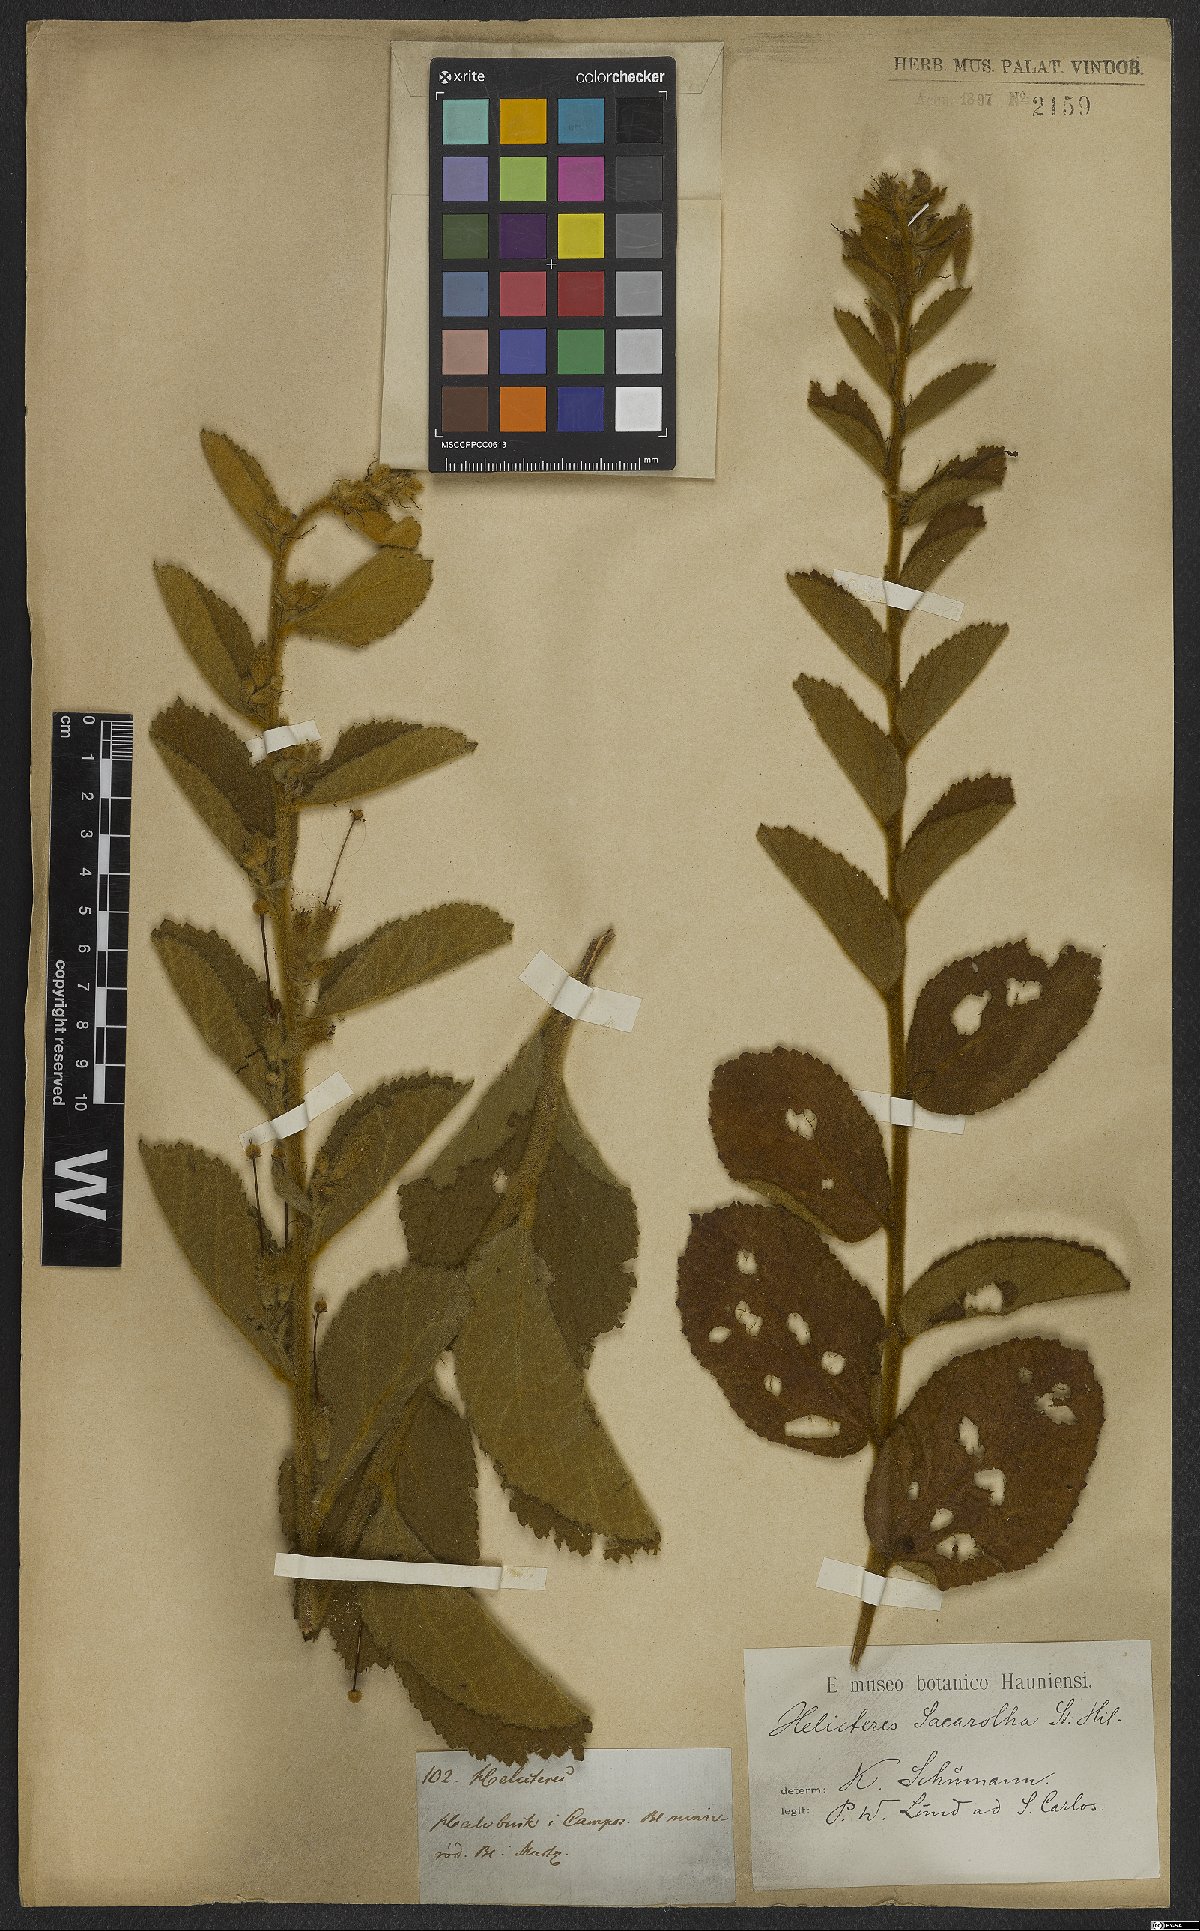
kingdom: Plantae
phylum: Tracheophyta
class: Magnoliopsida
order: Malvales
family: Malvaceae
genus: Helicteres
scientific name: Helicteres sacarolha
